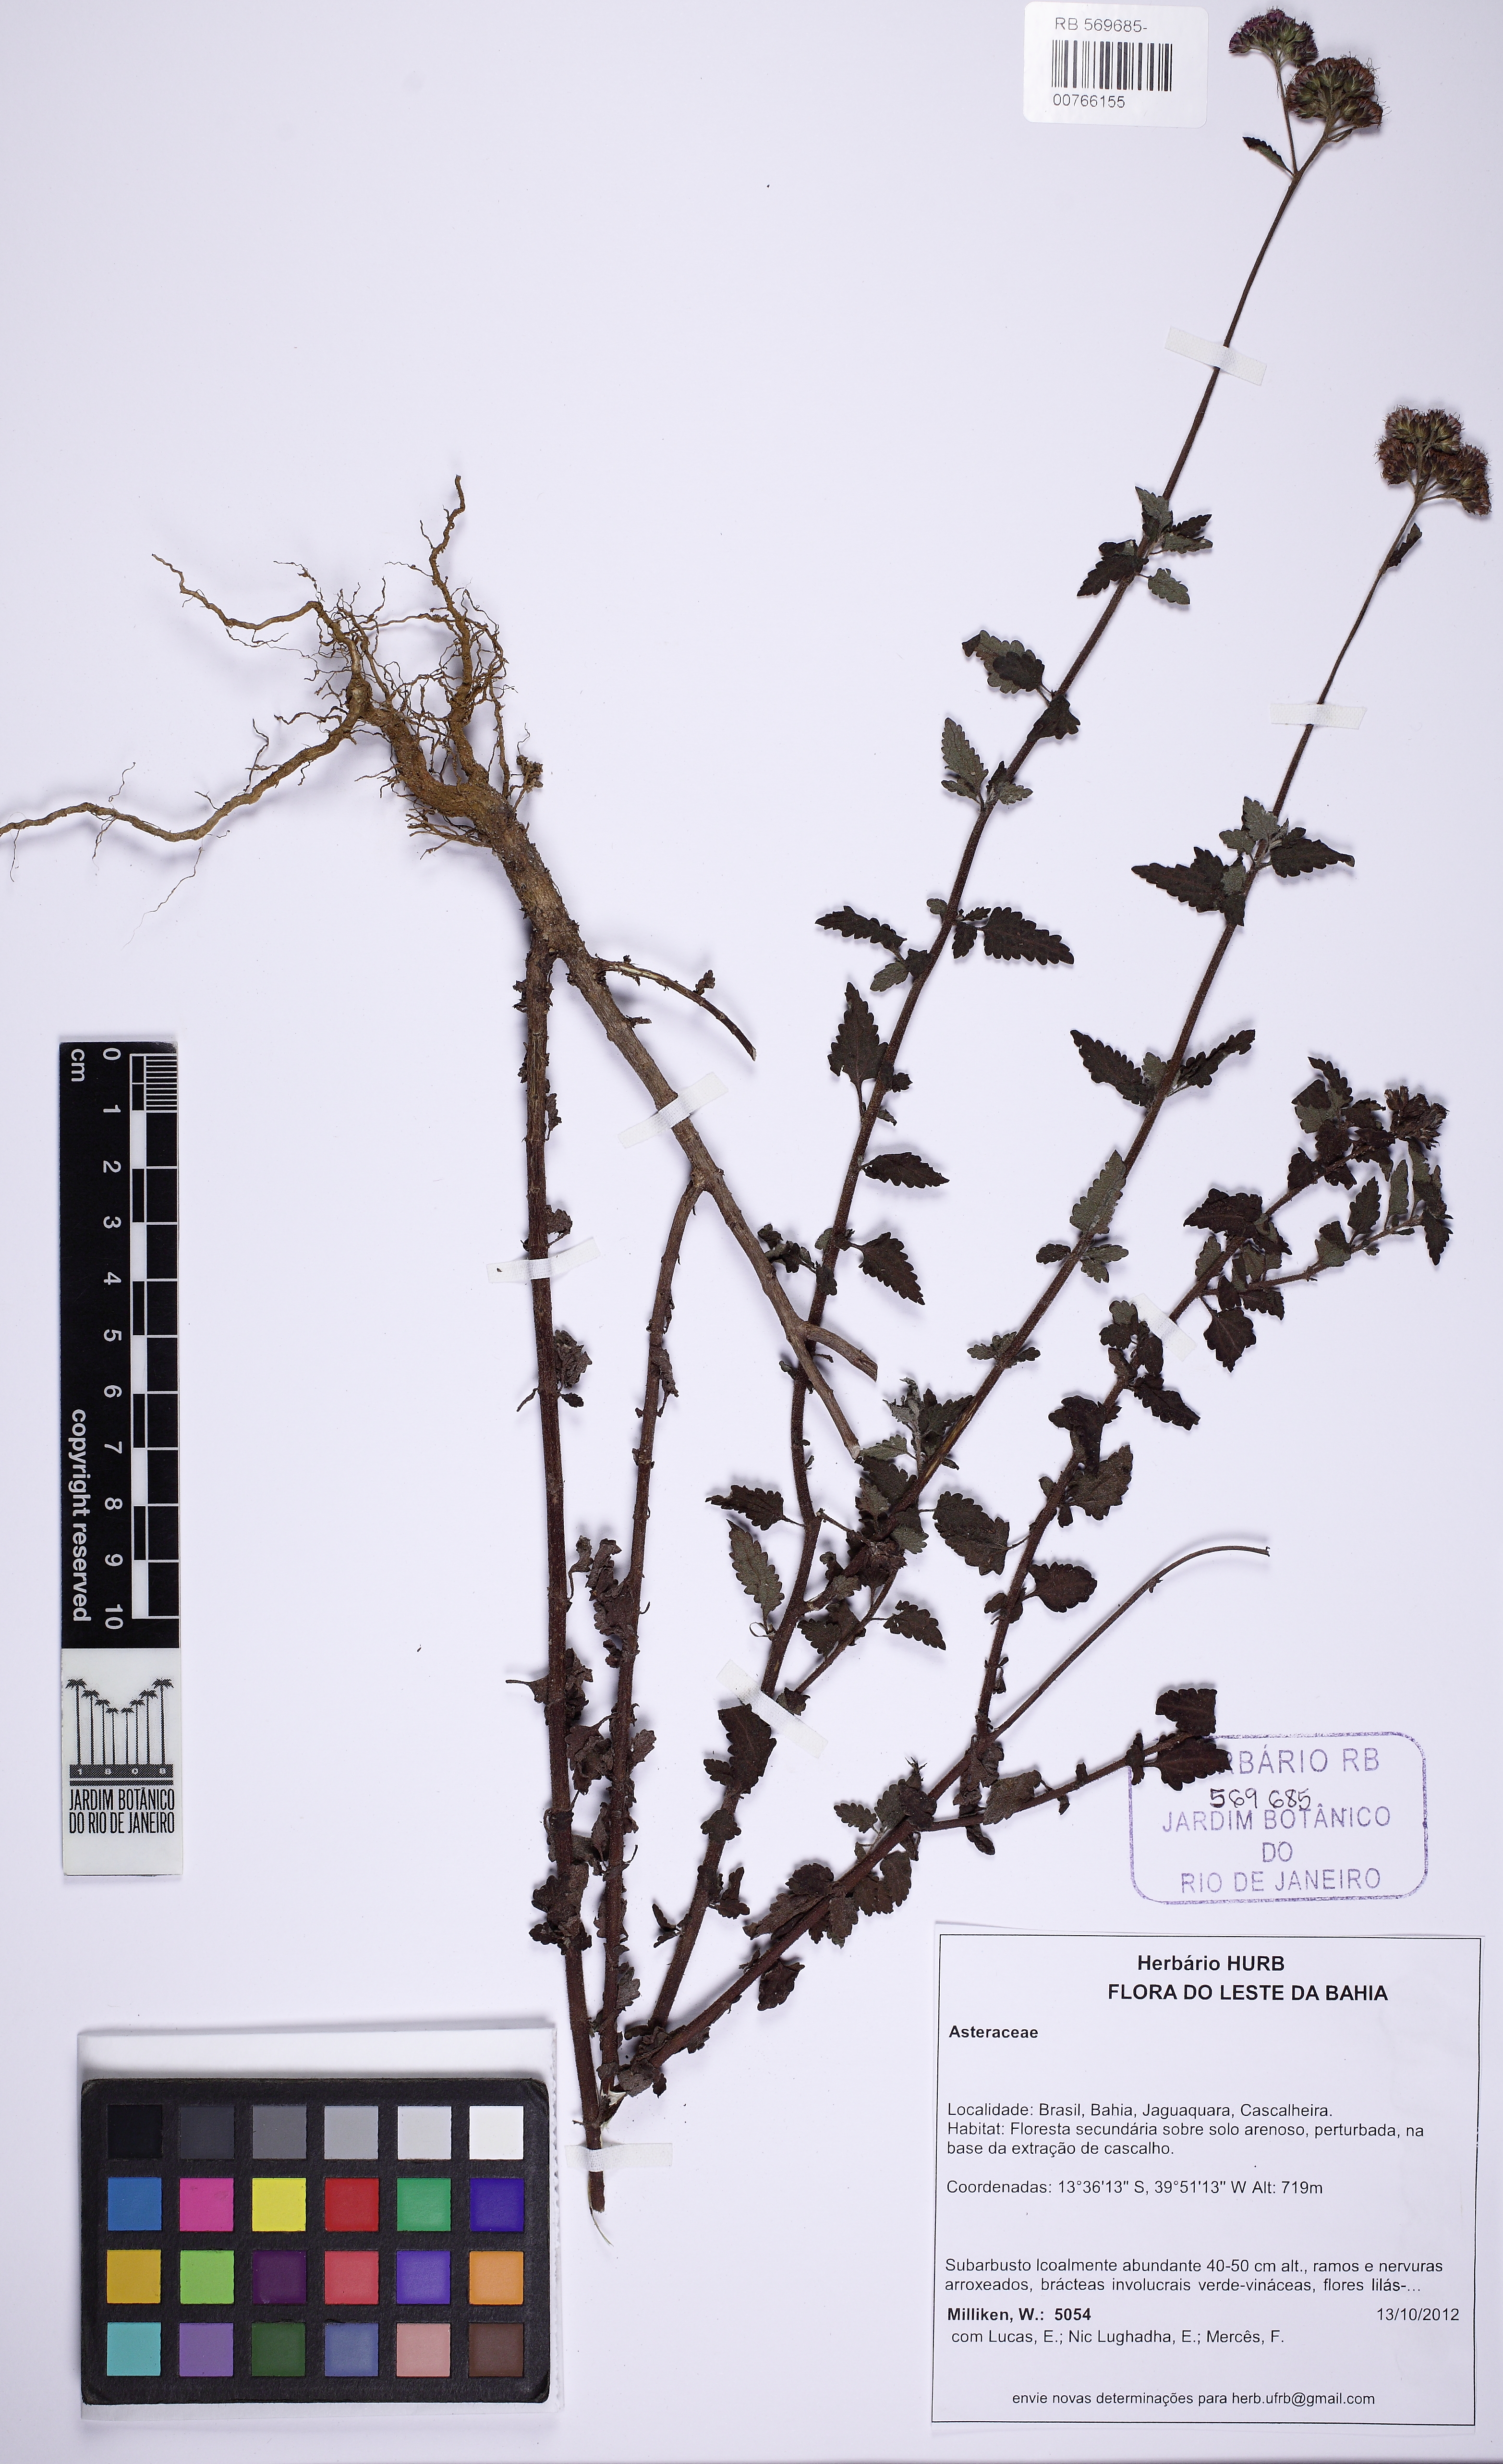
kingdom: Plantae
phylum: Tracheophyta
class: Magnoliopsida
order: Asterales
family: Asteraceae
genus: Conocliniopsis
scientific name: Conocliniopsis grossedentata
